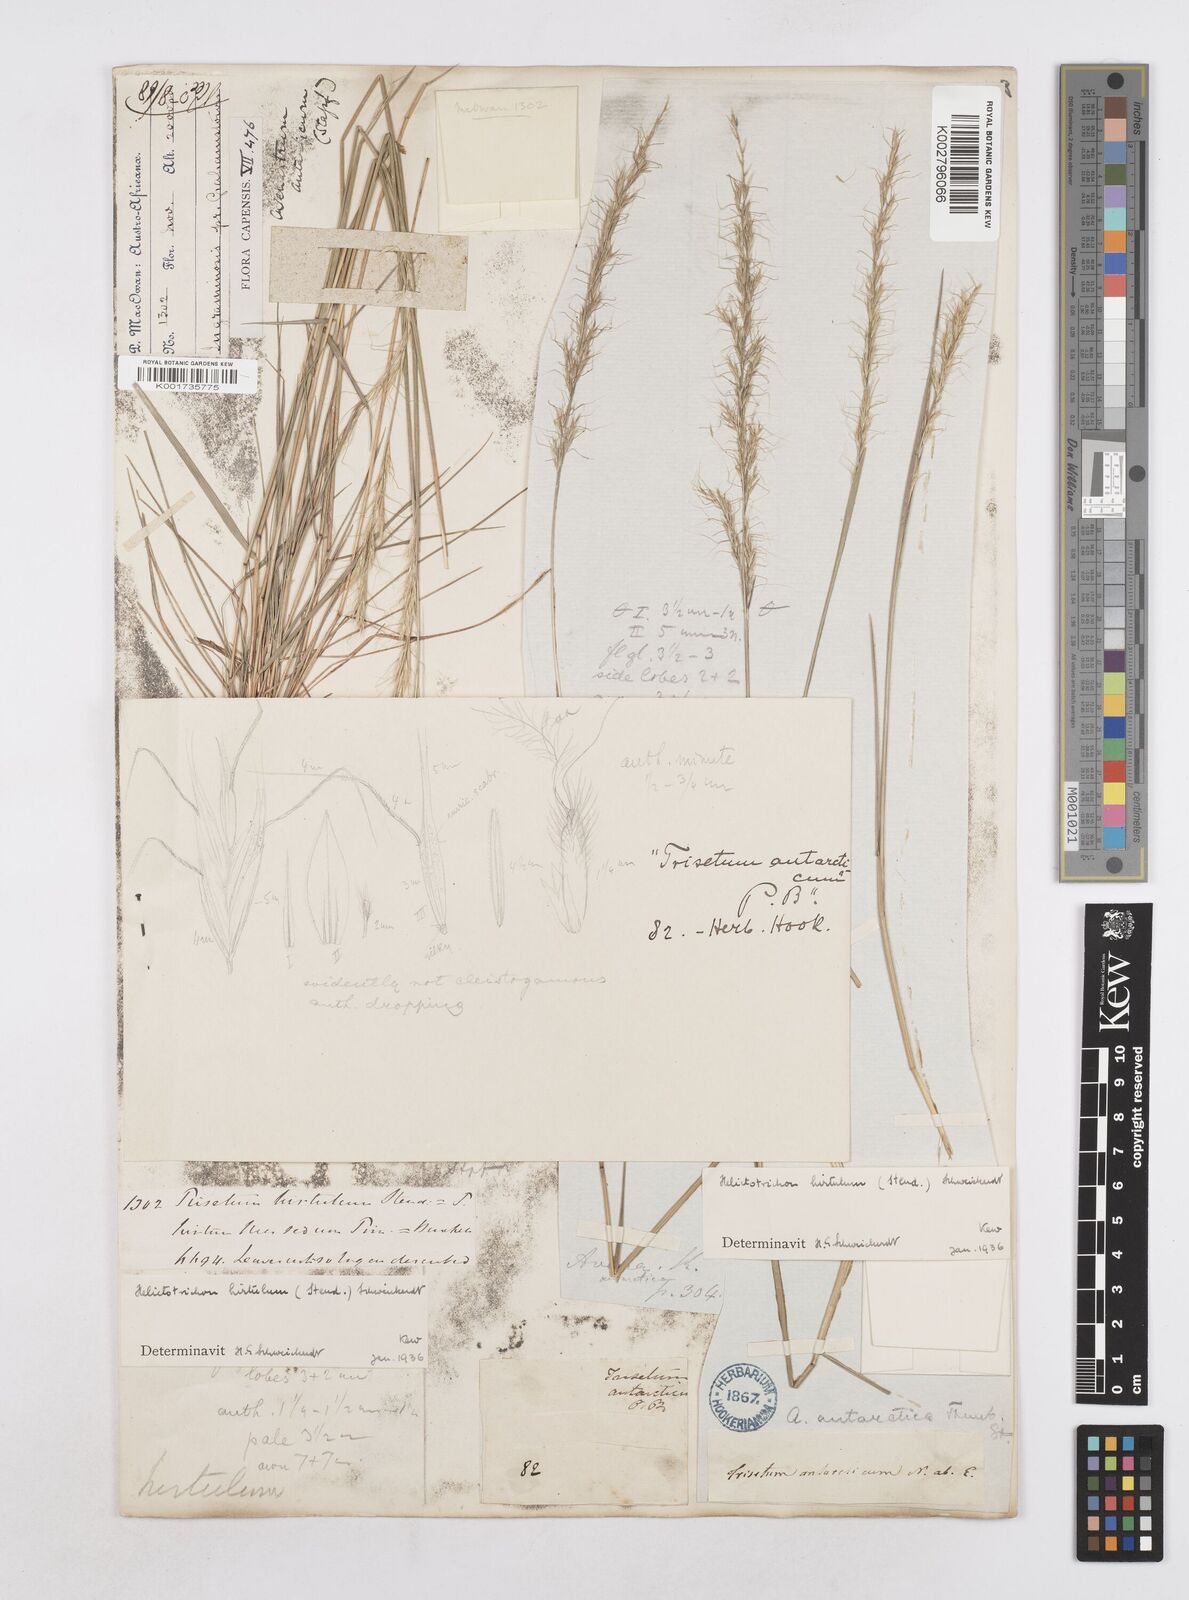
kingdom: Plantae
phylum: Tracheophyta
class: Liliopsida
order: Poales
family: Poaceae
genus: Trisetopsis
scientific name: Trisetopsis hirtula
